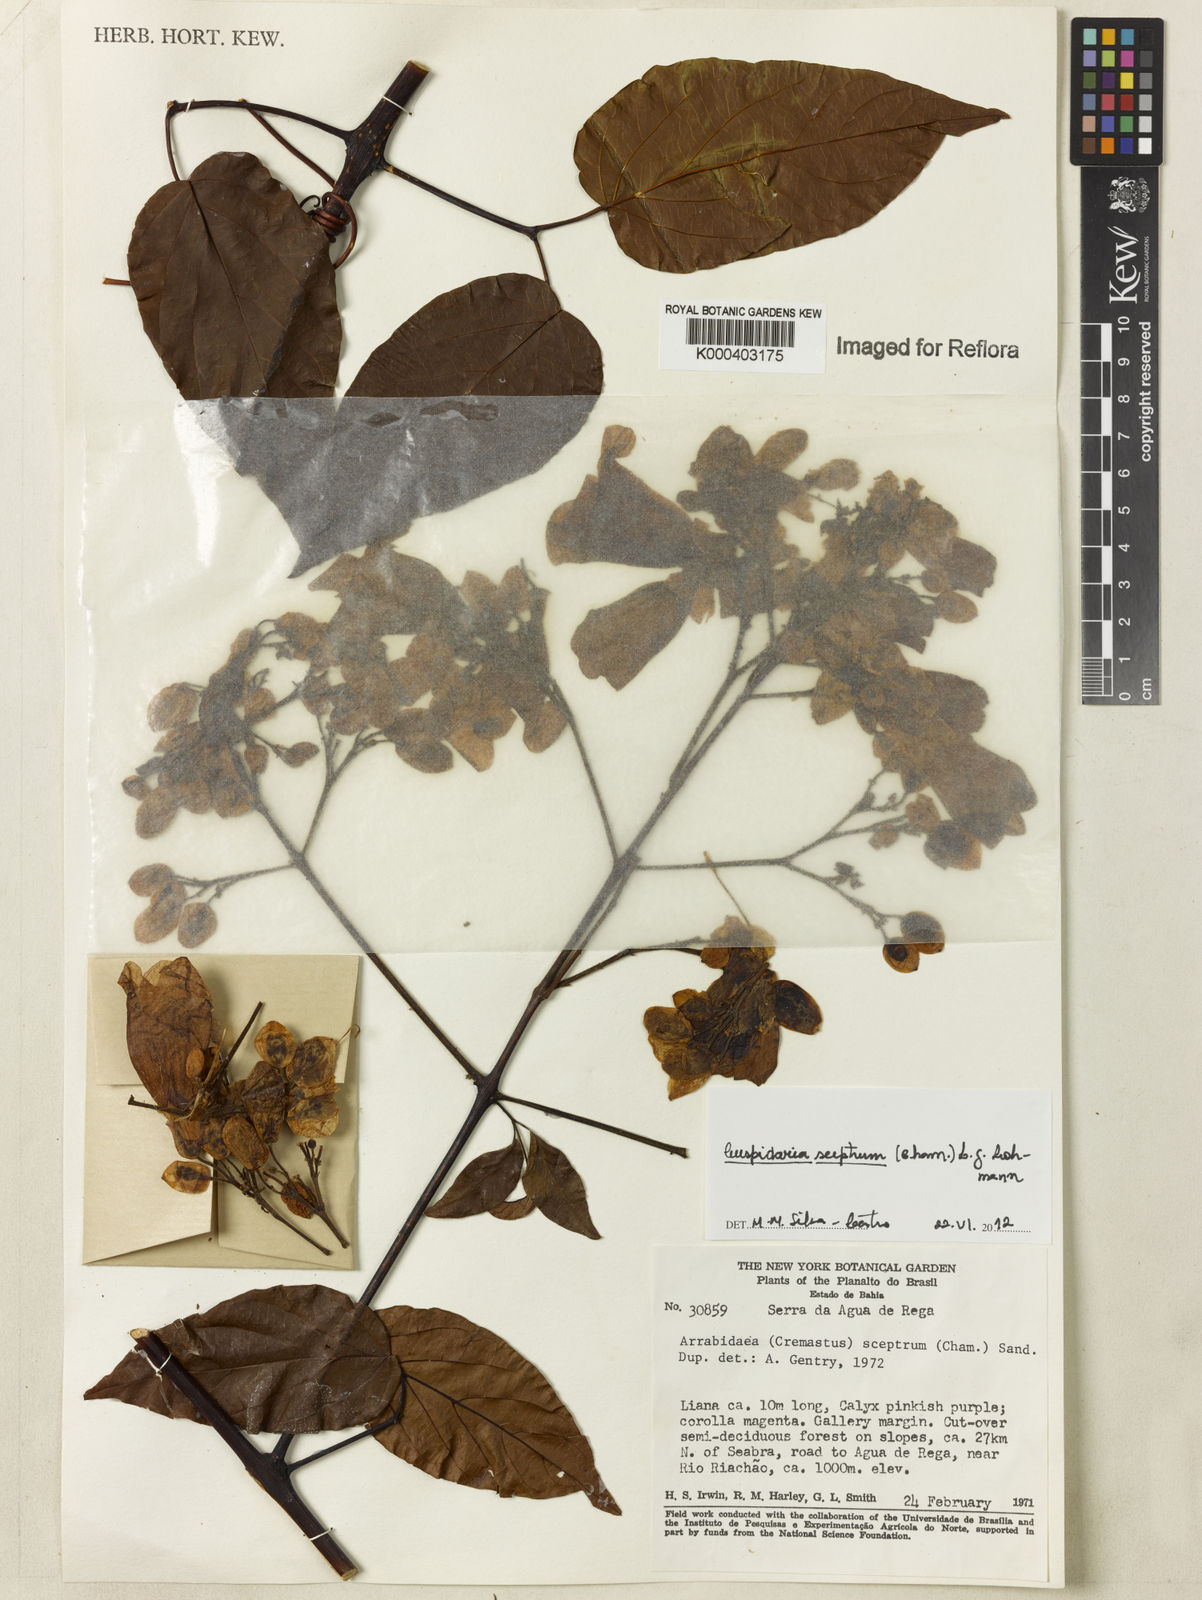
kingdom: Plantae
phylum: Tracheophyta
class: Magnoliopsida
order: Lamiales
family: Bignoniaceae
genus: Cuspidaria
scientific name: Cuspidaria
